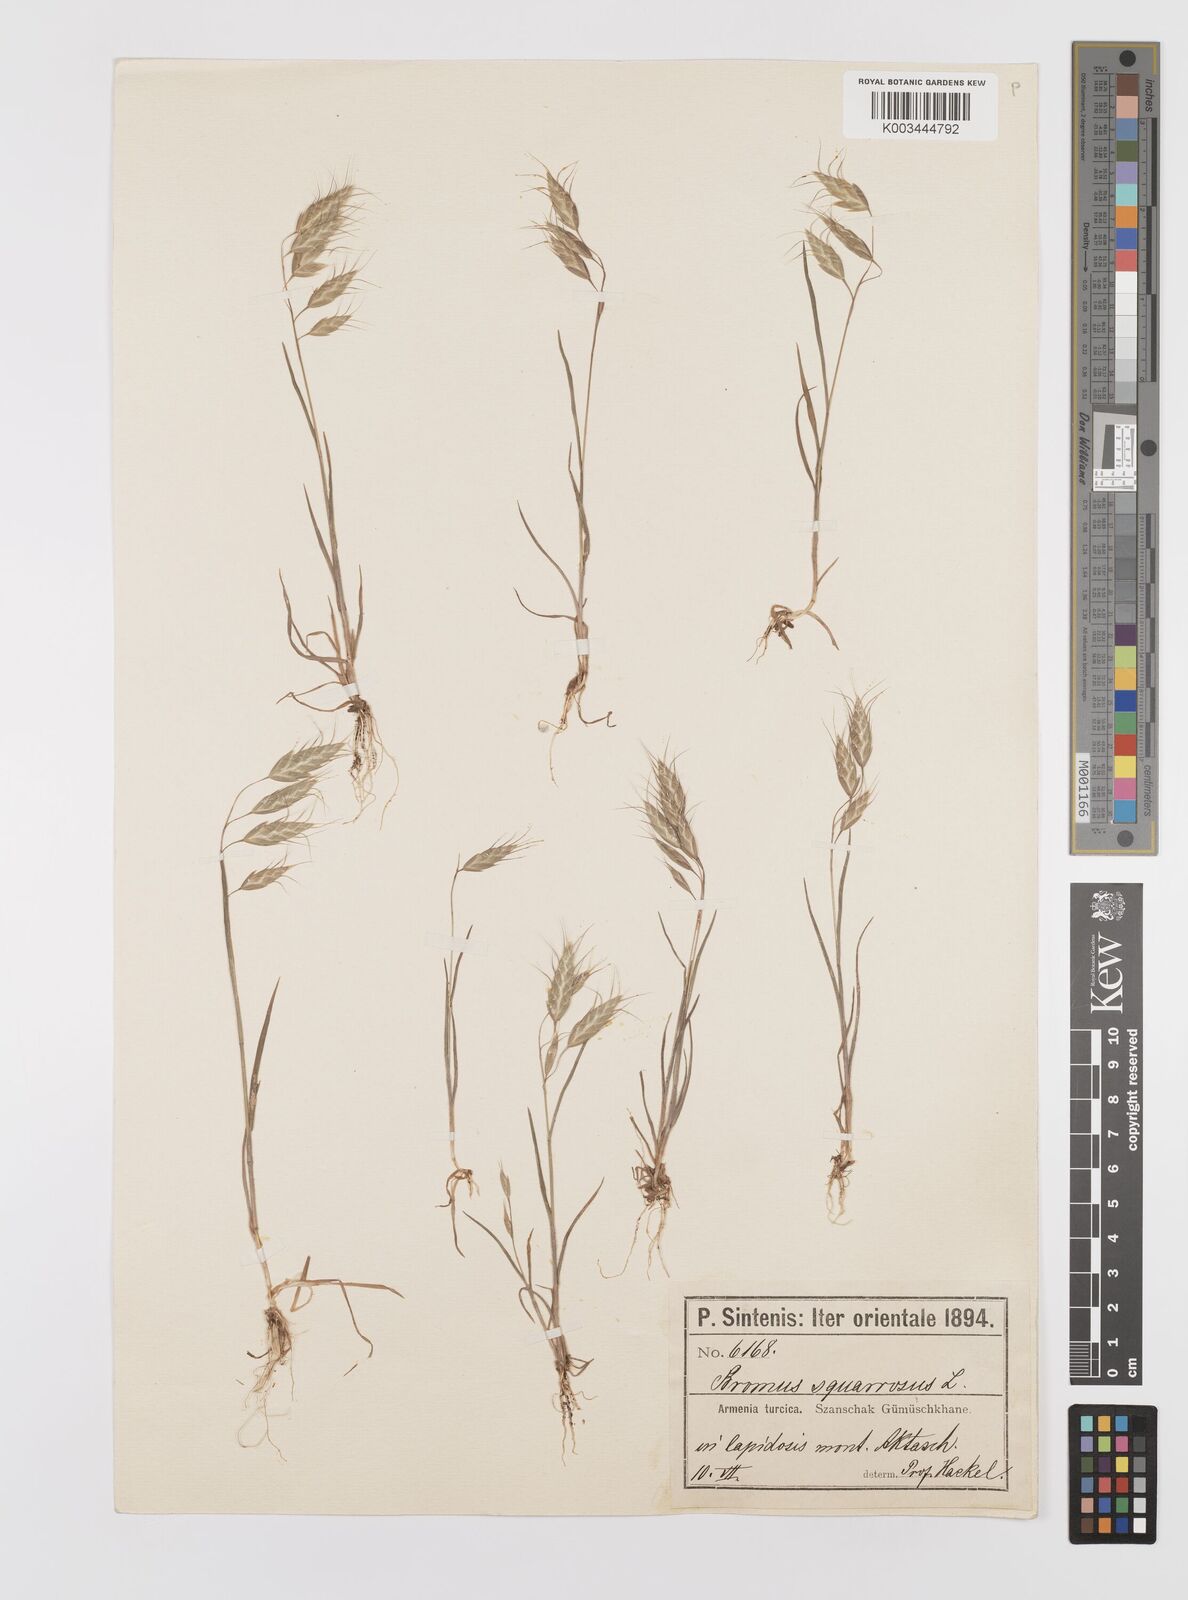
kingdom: Plantae
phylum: Tracheophyta
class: Liliopsida
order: Poales
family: Poaceae
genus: Bromus
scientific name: Bromus squarrosus
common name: Corn brome
